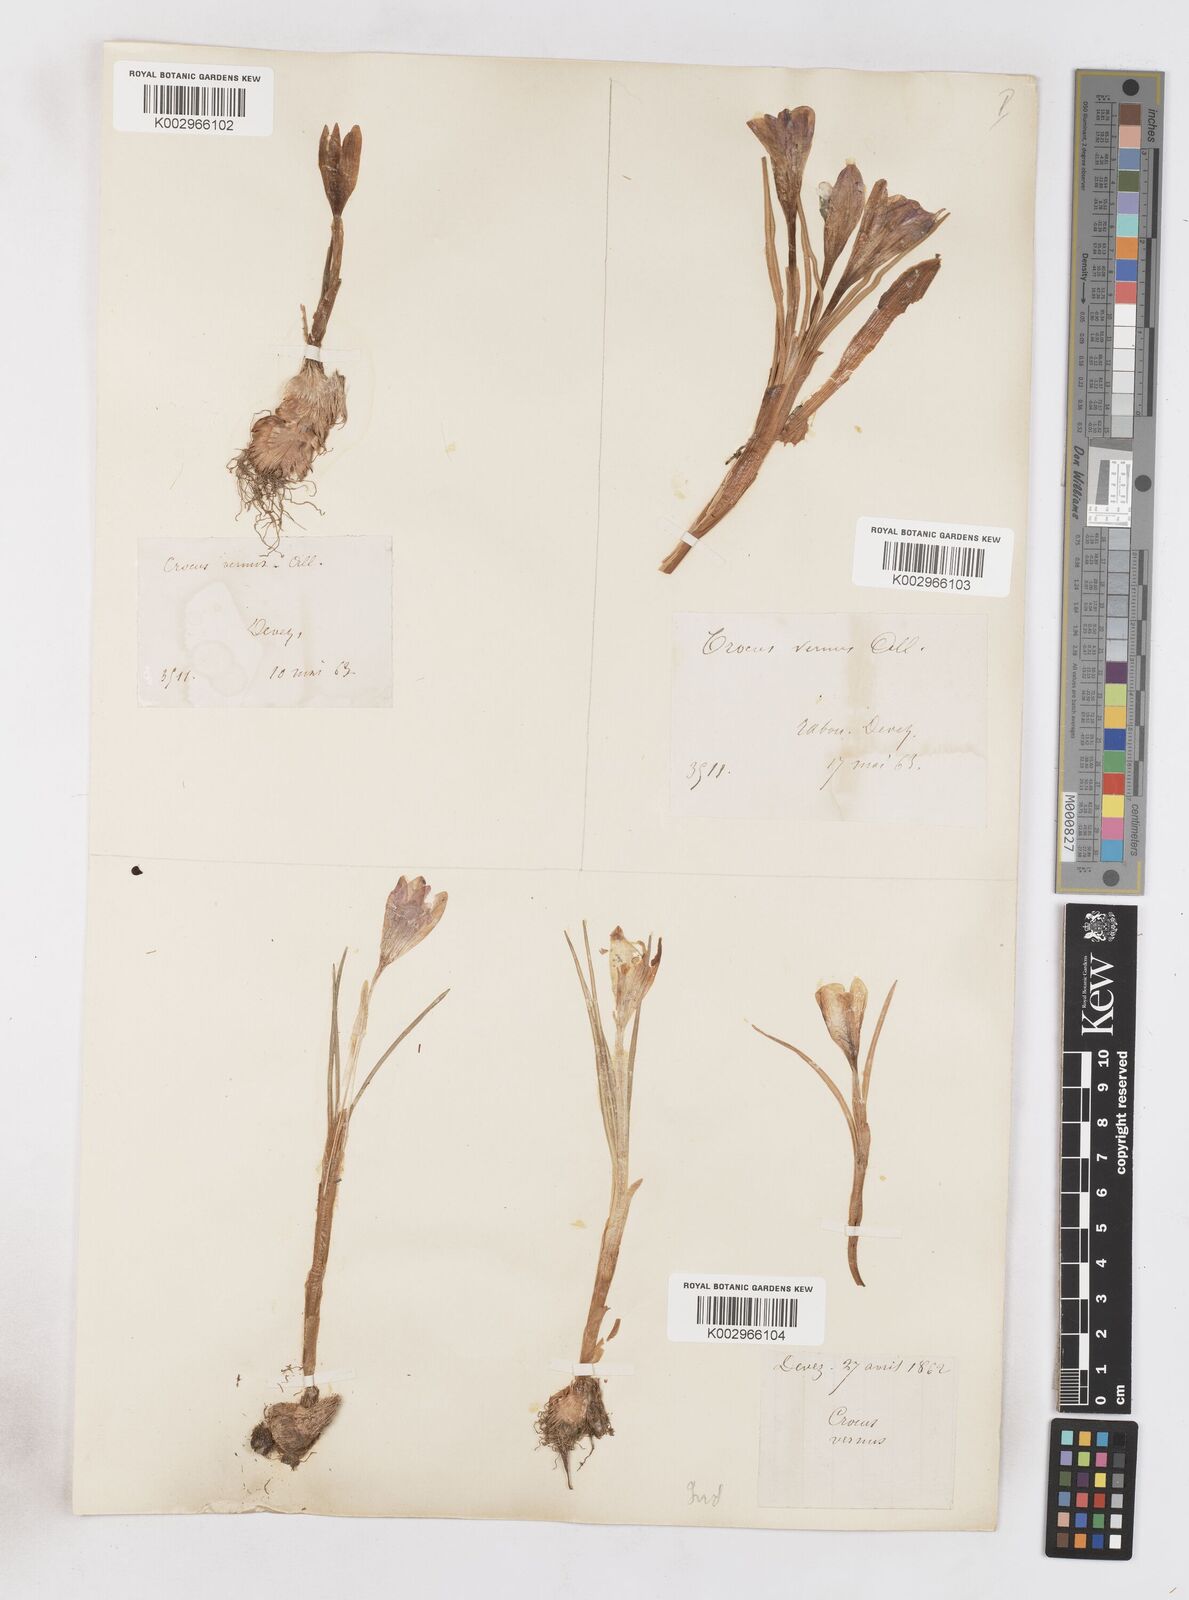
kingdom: Plantae
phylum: Tracheophyta
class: Liliopsida
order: Asparagales
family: Iridaceae
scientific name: Iridaceae
